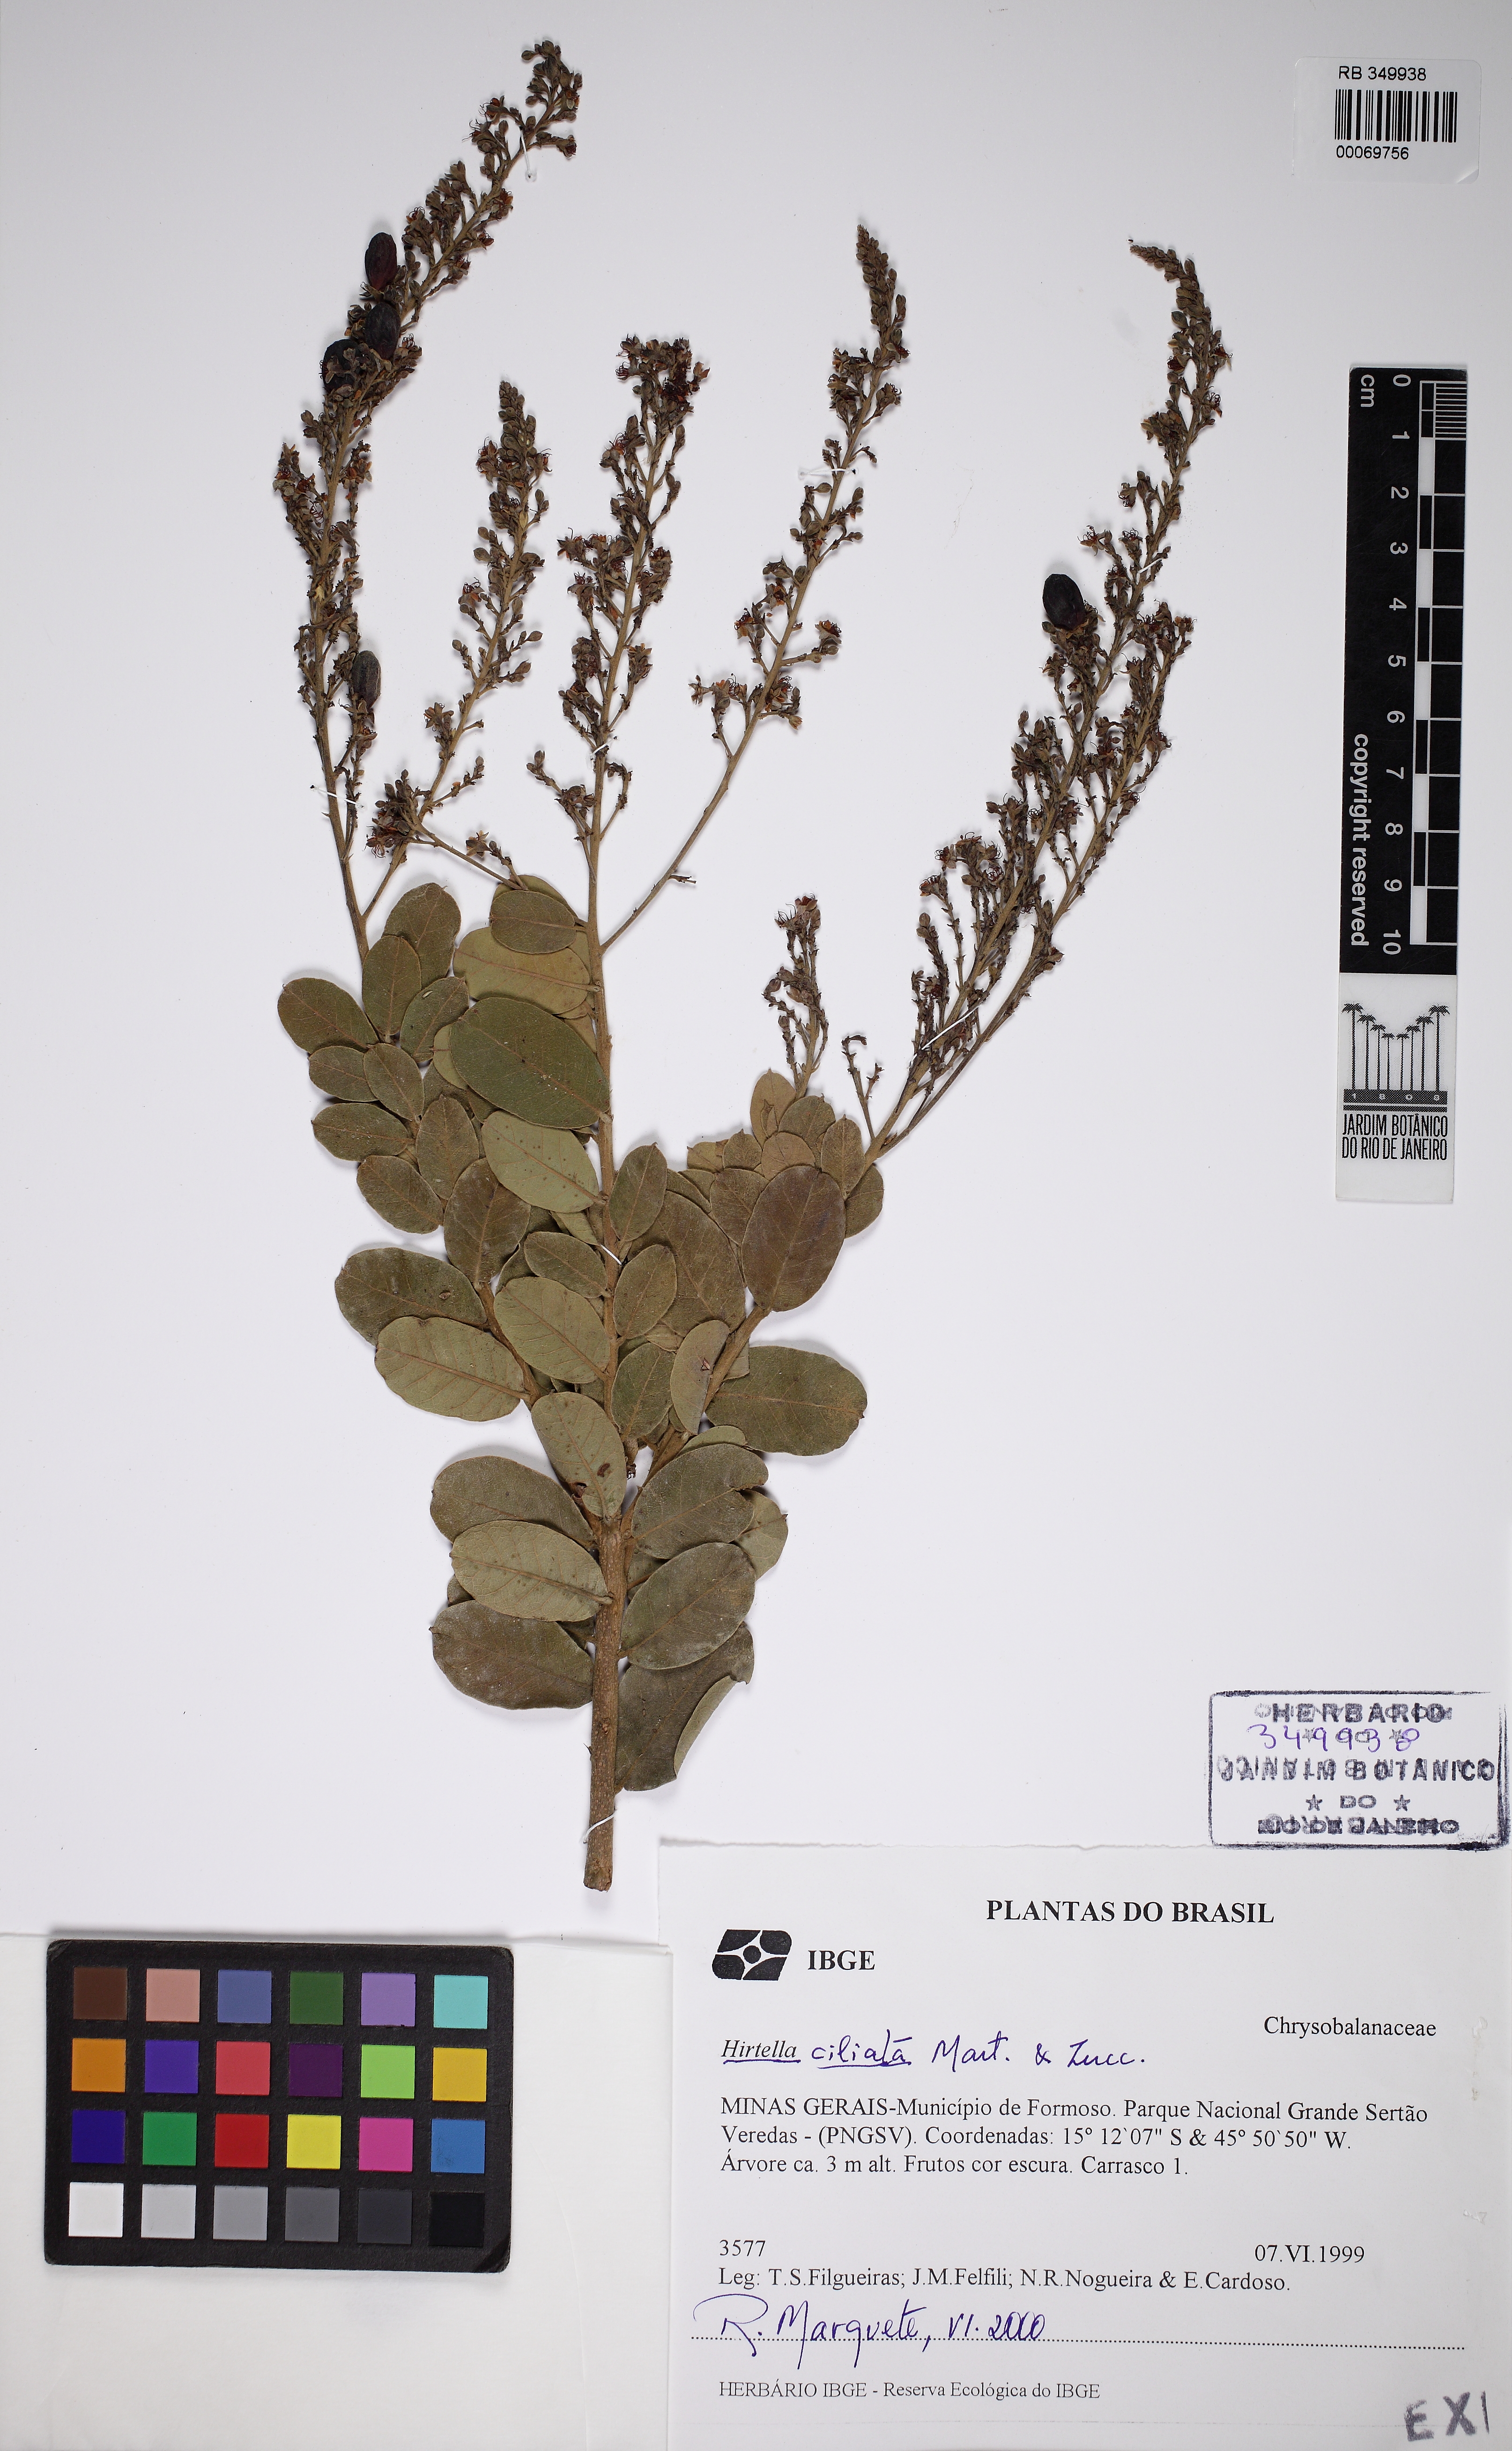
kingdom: Plantae
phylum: Tracheophyta
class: Magnoliopsida
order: Malpighiales
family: Chrysobalanaceae
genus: Hirtella
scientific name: Hirtella ciliata
